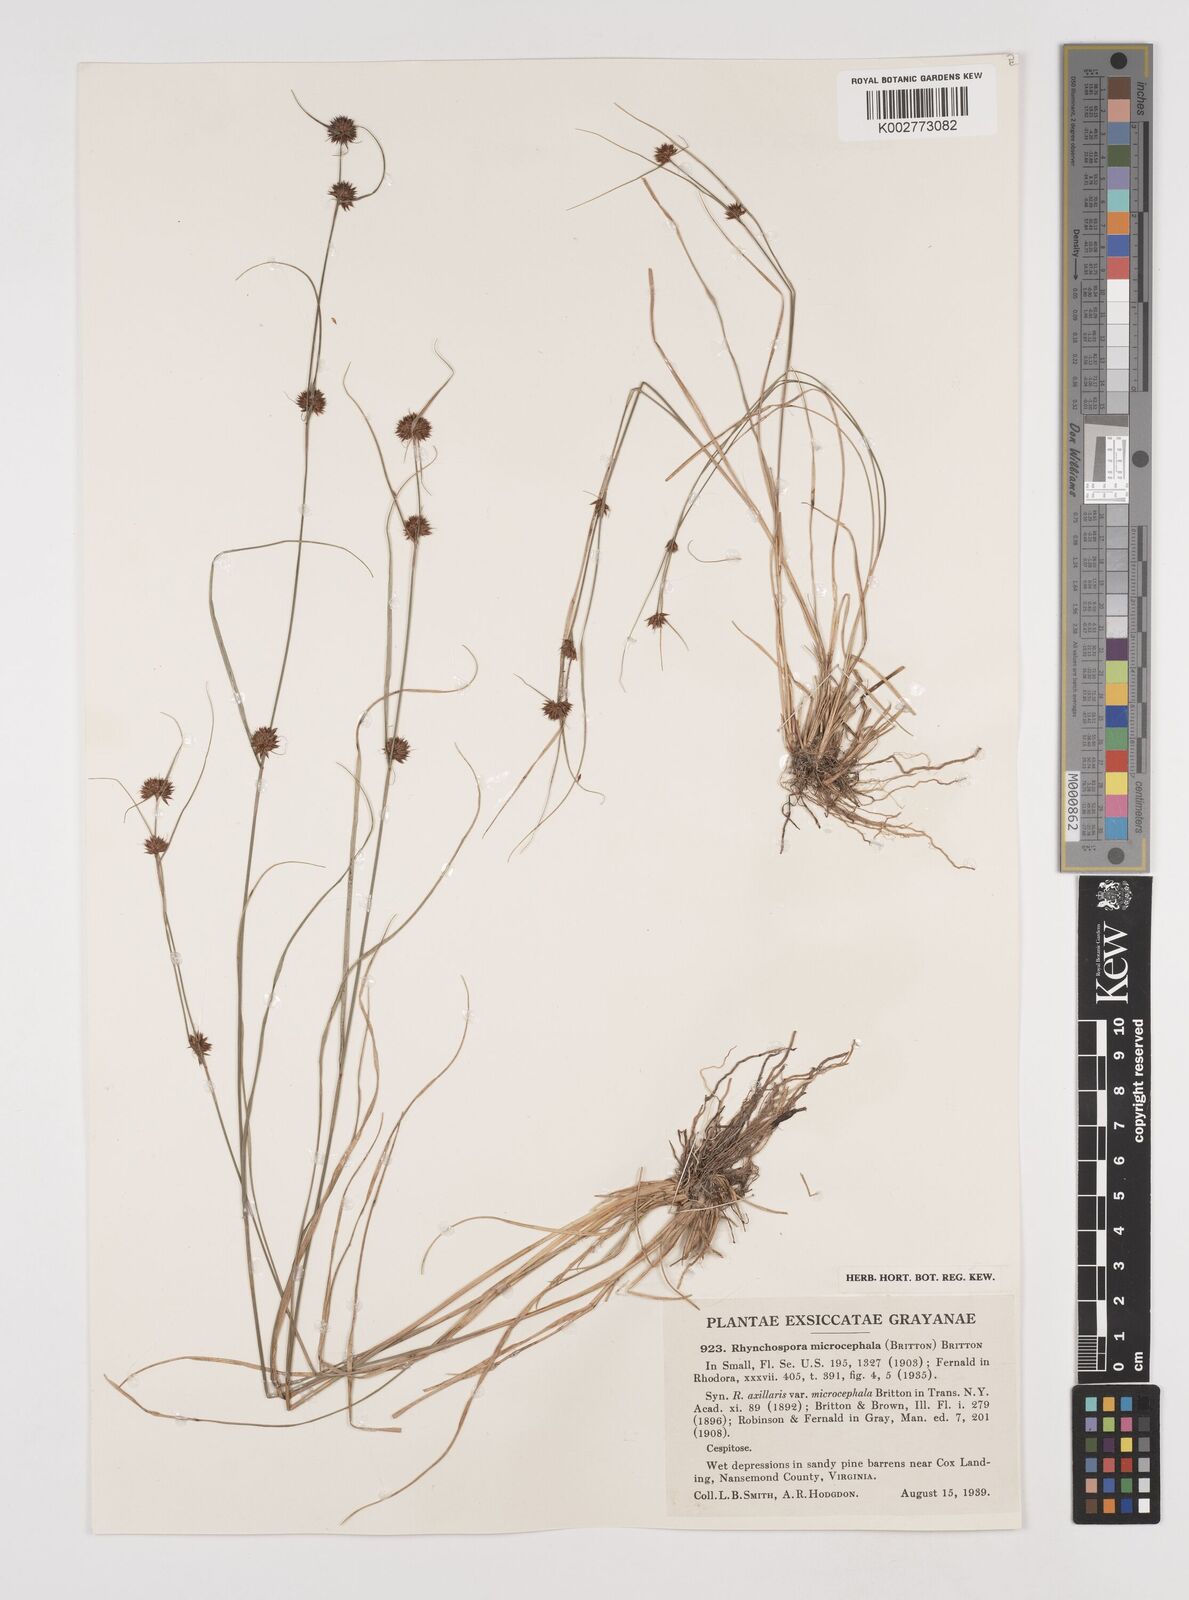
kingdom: Plantae
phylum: Tracheophyta
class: Liliopsida
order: Poales
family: Cyperaceae
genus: Rhynchospora
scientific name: Rhynchospora microcephala
